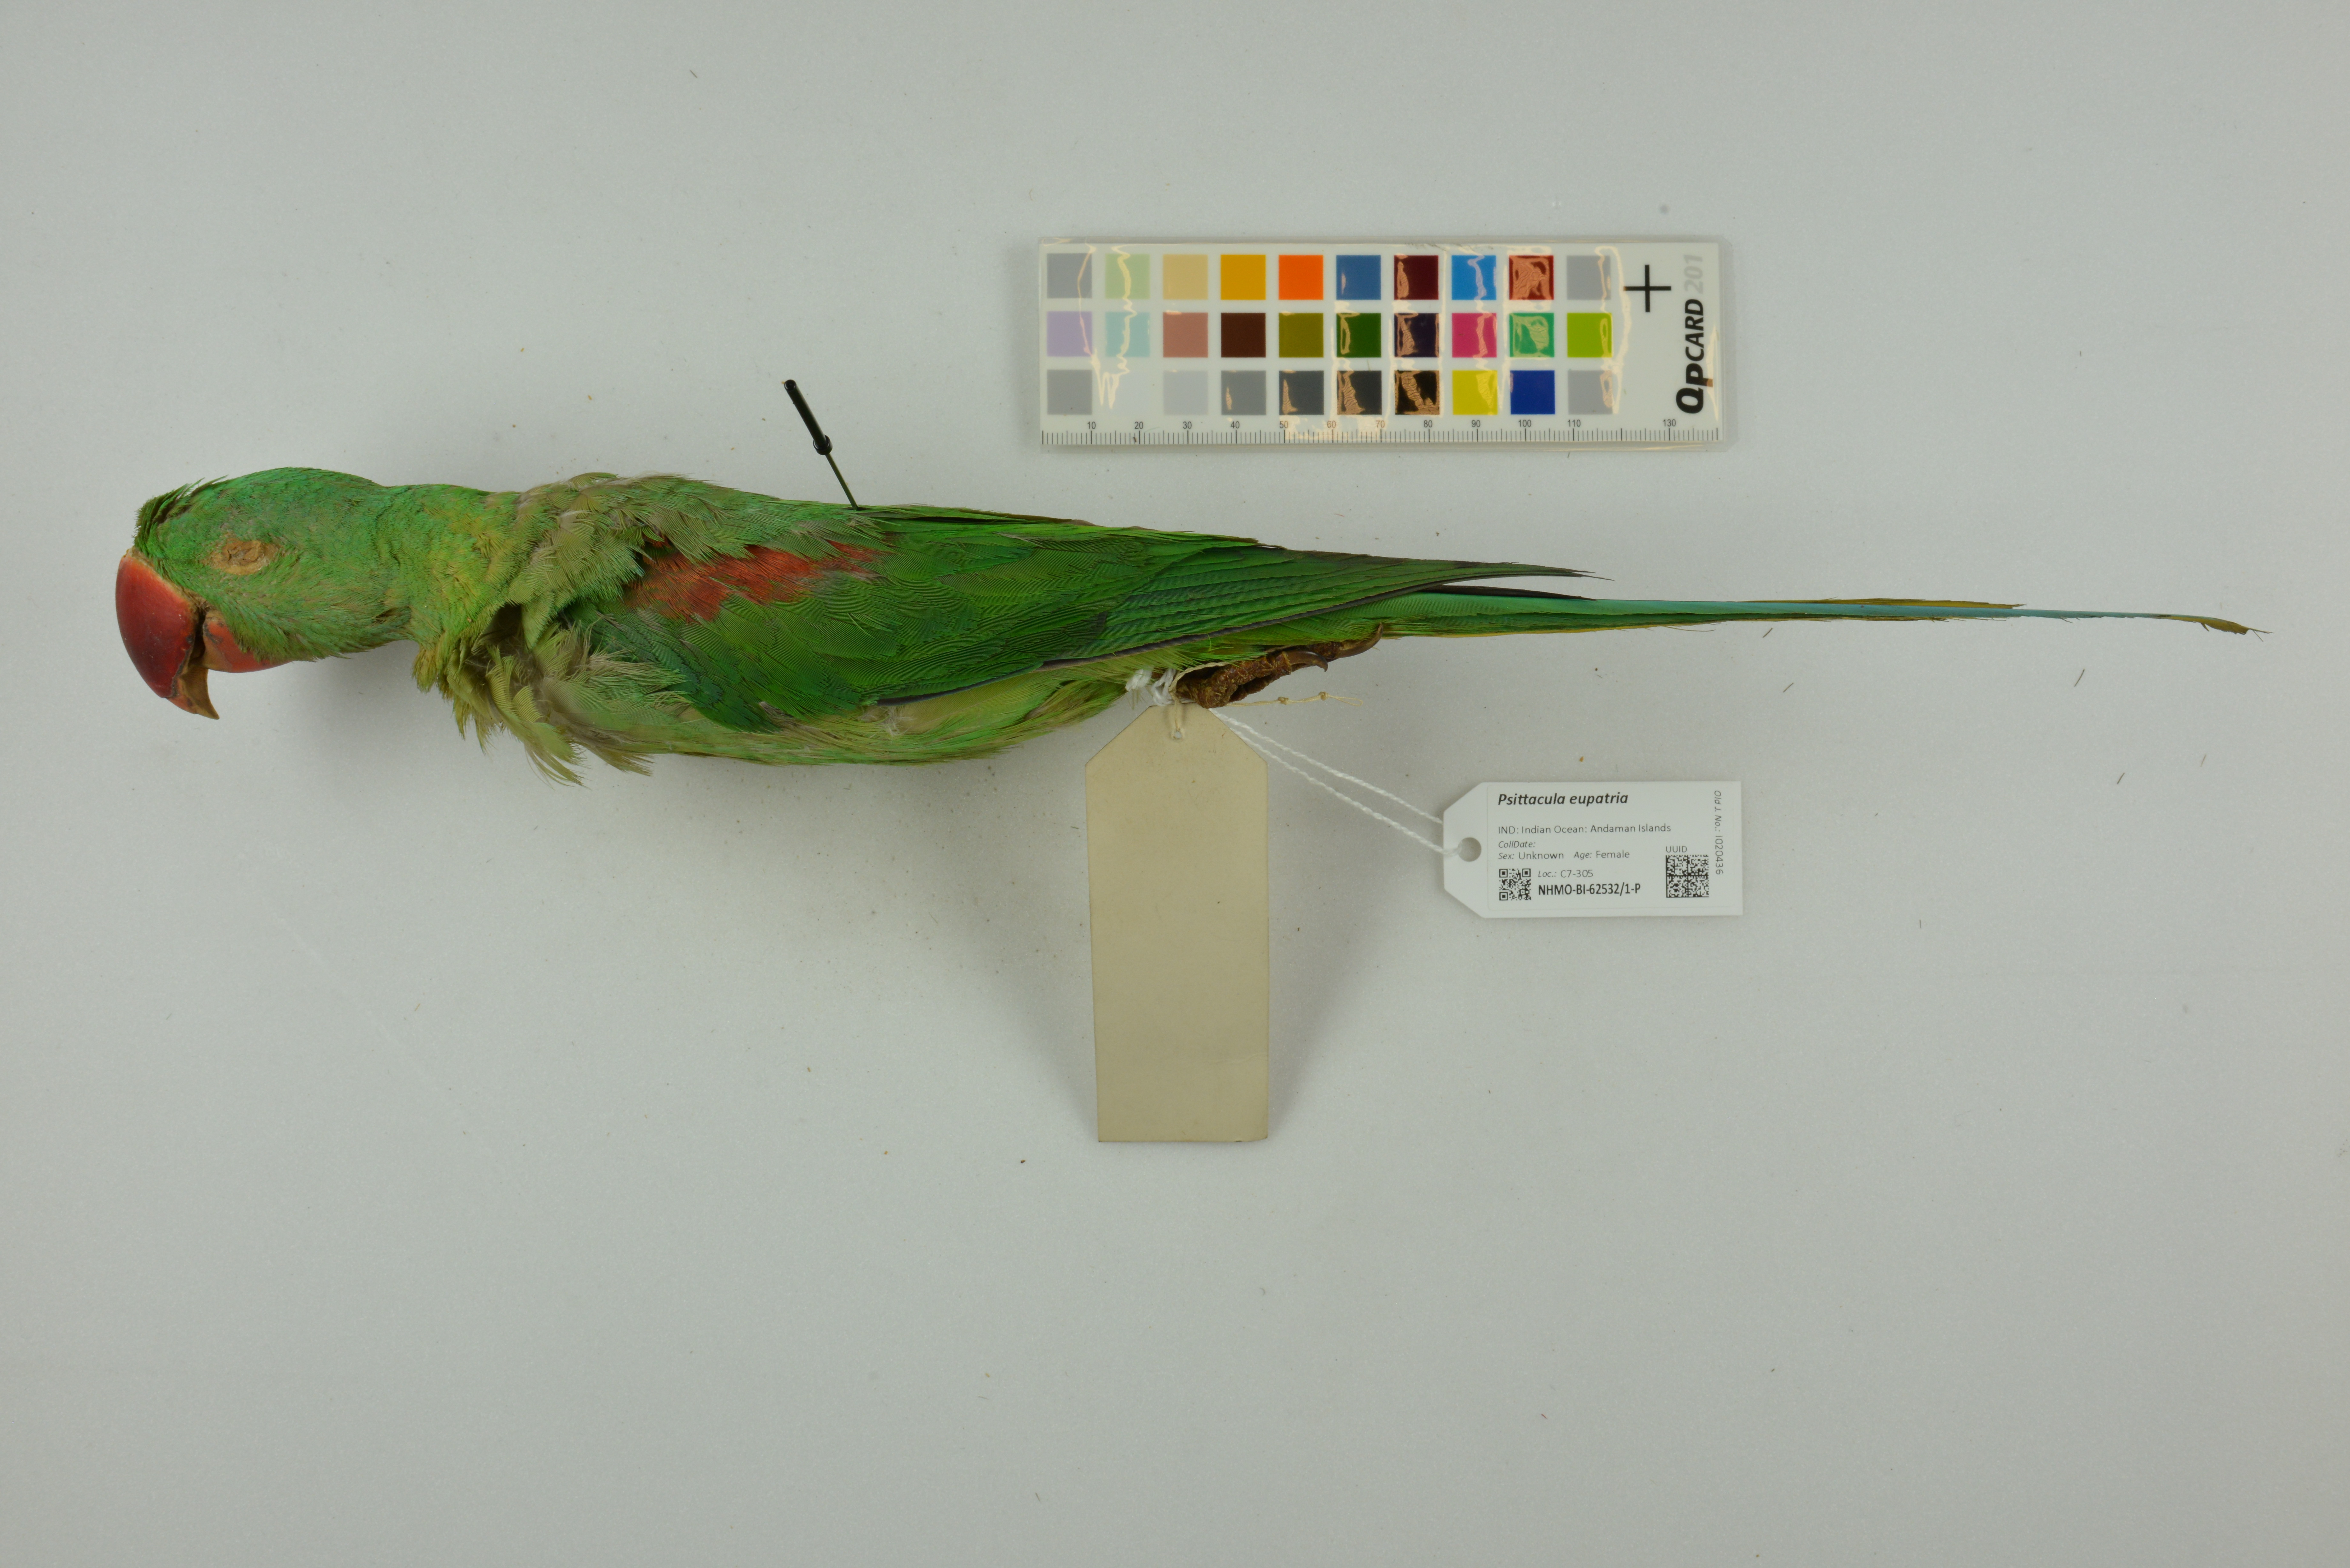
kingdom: Animalia
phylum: Chordata
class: Aves
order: Psittaciformes
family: Psittacidae
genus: Psittacula
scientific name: Psittacula eupatria
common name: Alexandrine parakeet
